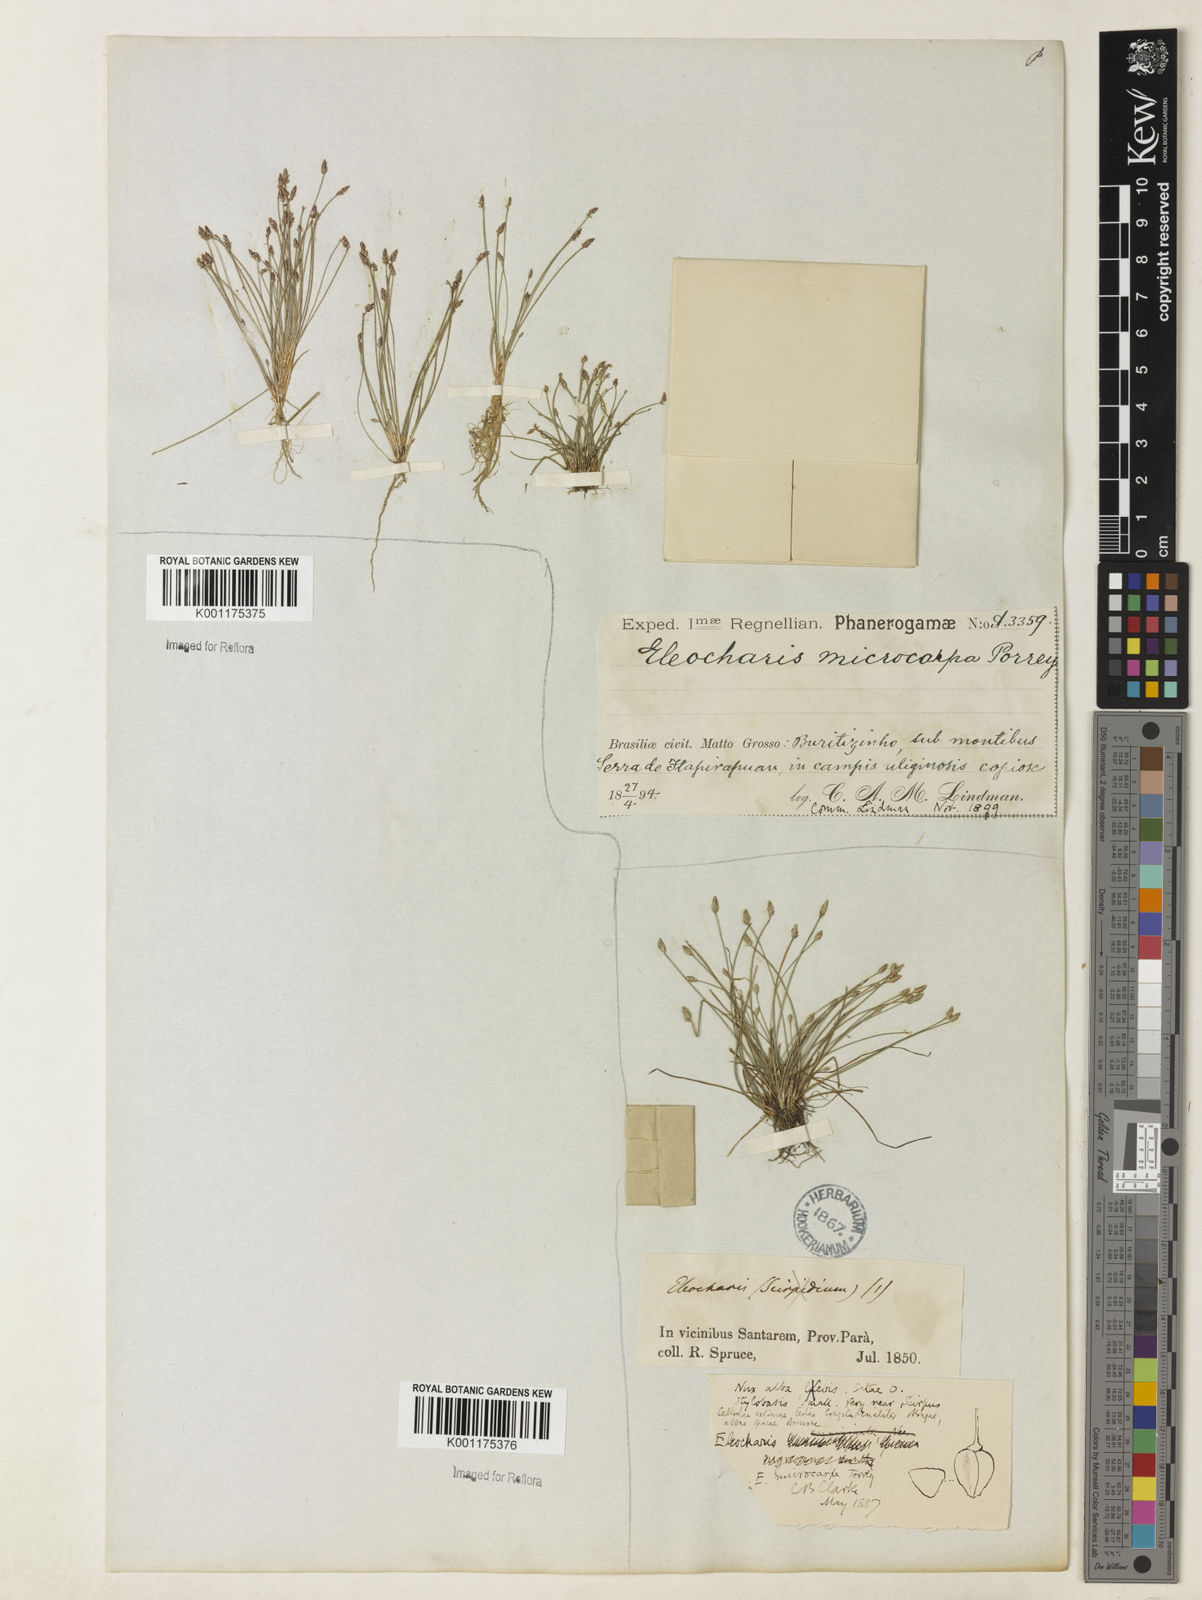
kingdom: Plantae
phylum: Tracheophyta
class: Liliopsida
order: Poales
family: Cyperaceae
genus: Eleocharis
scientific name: Eleocharis microcarpa
